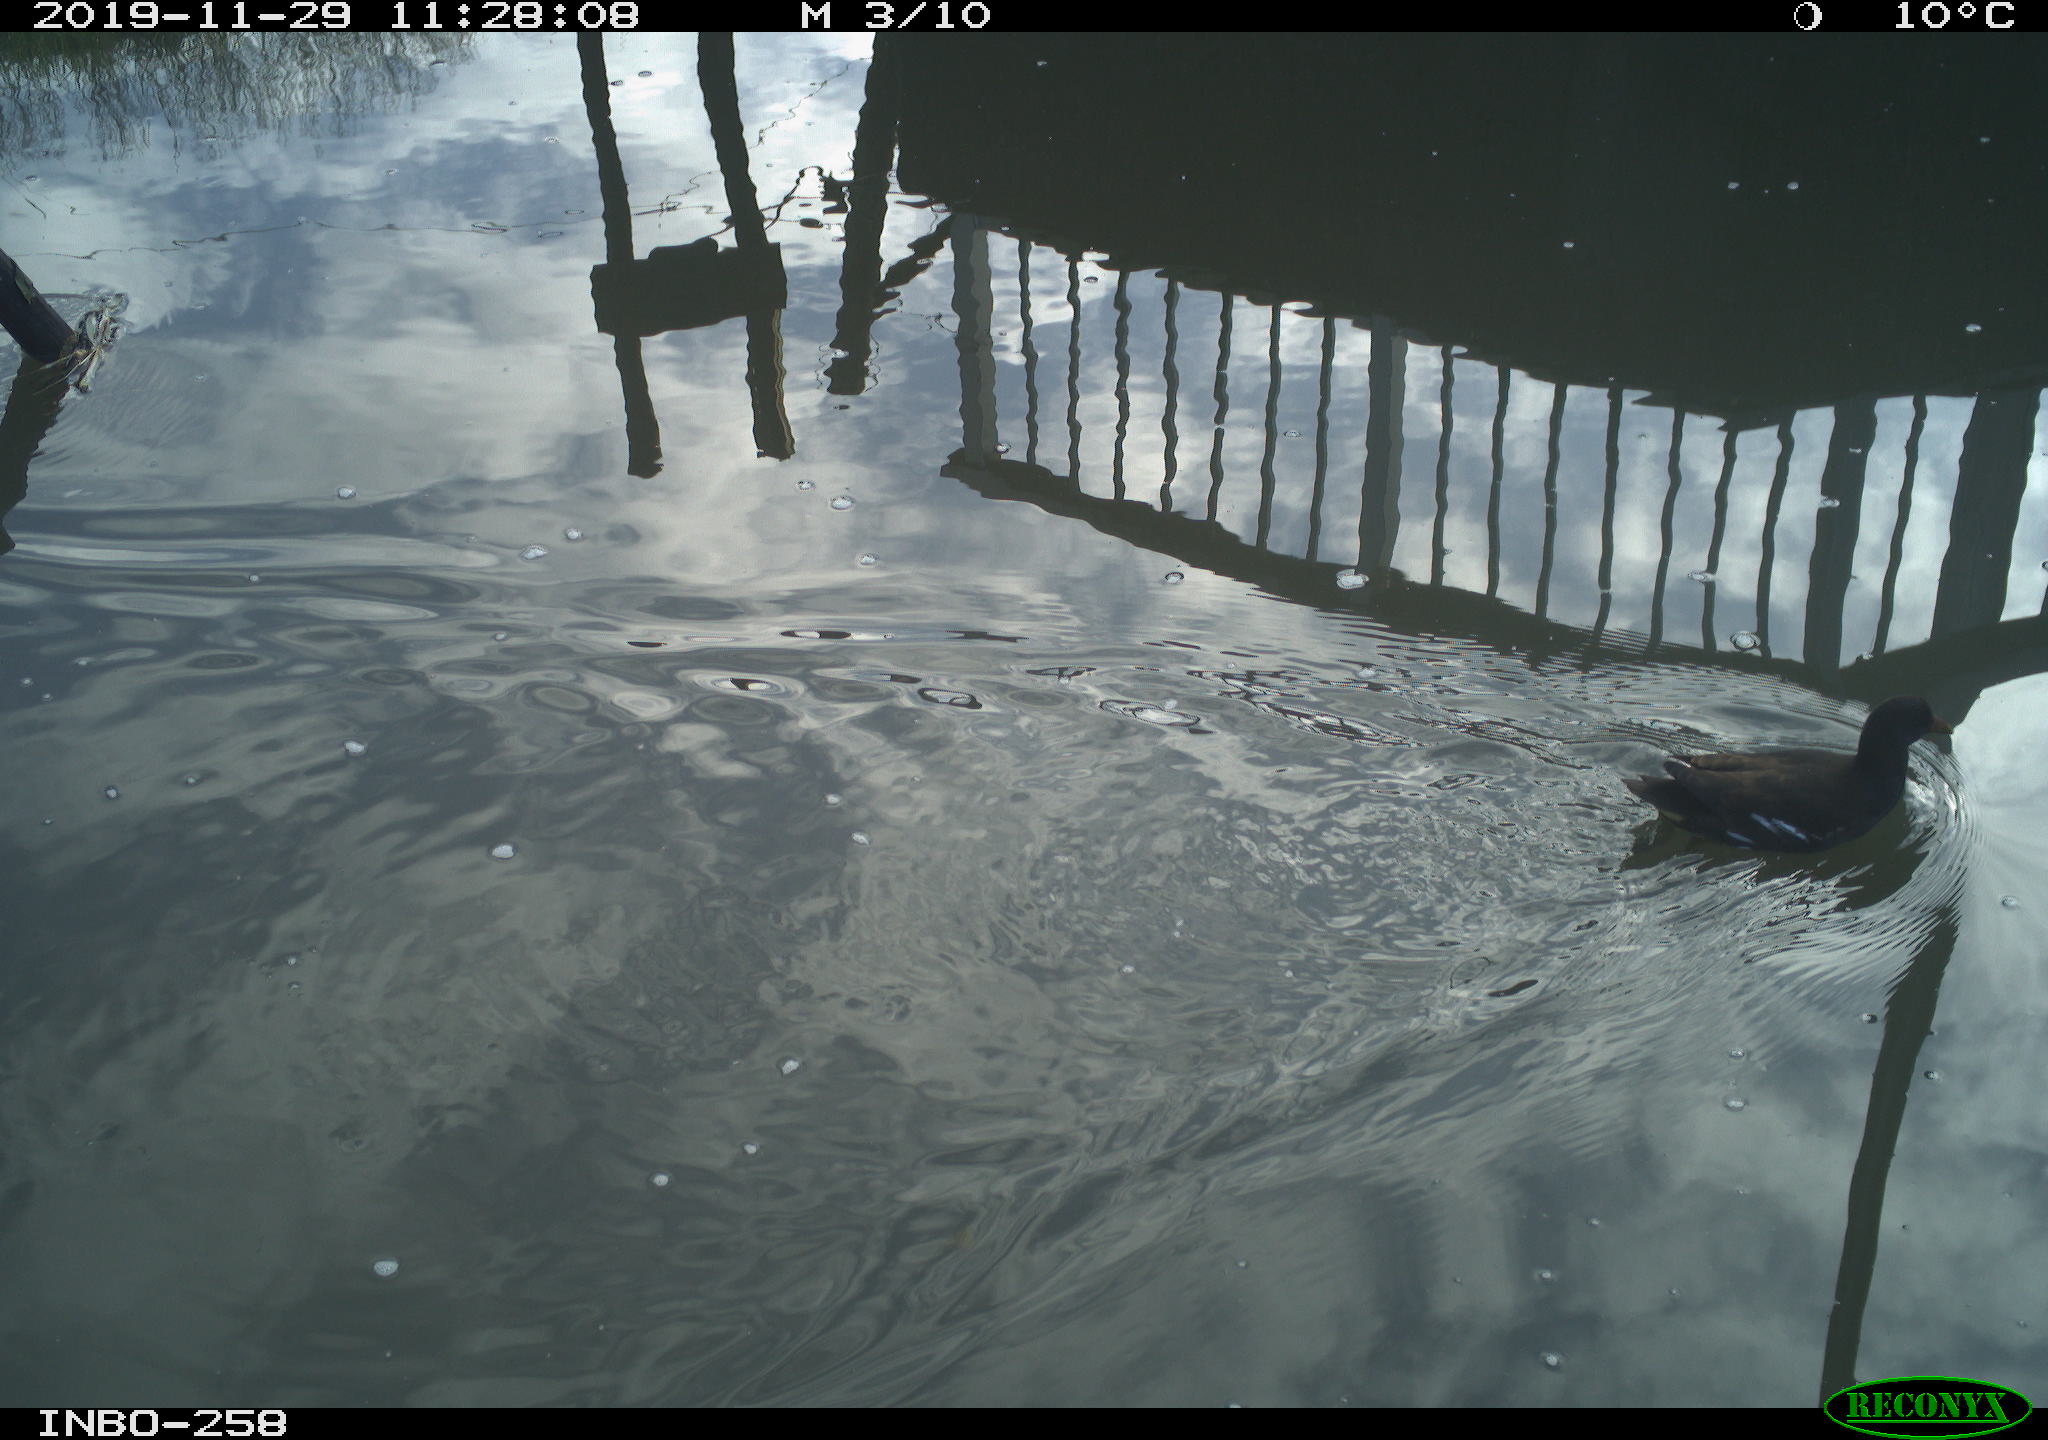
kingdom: Animalia
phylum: Chordata
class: Aves
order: Gruiformes
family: Rallidae
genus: Gallinula
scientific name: Gallinula chloropus
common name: Common moorhen
